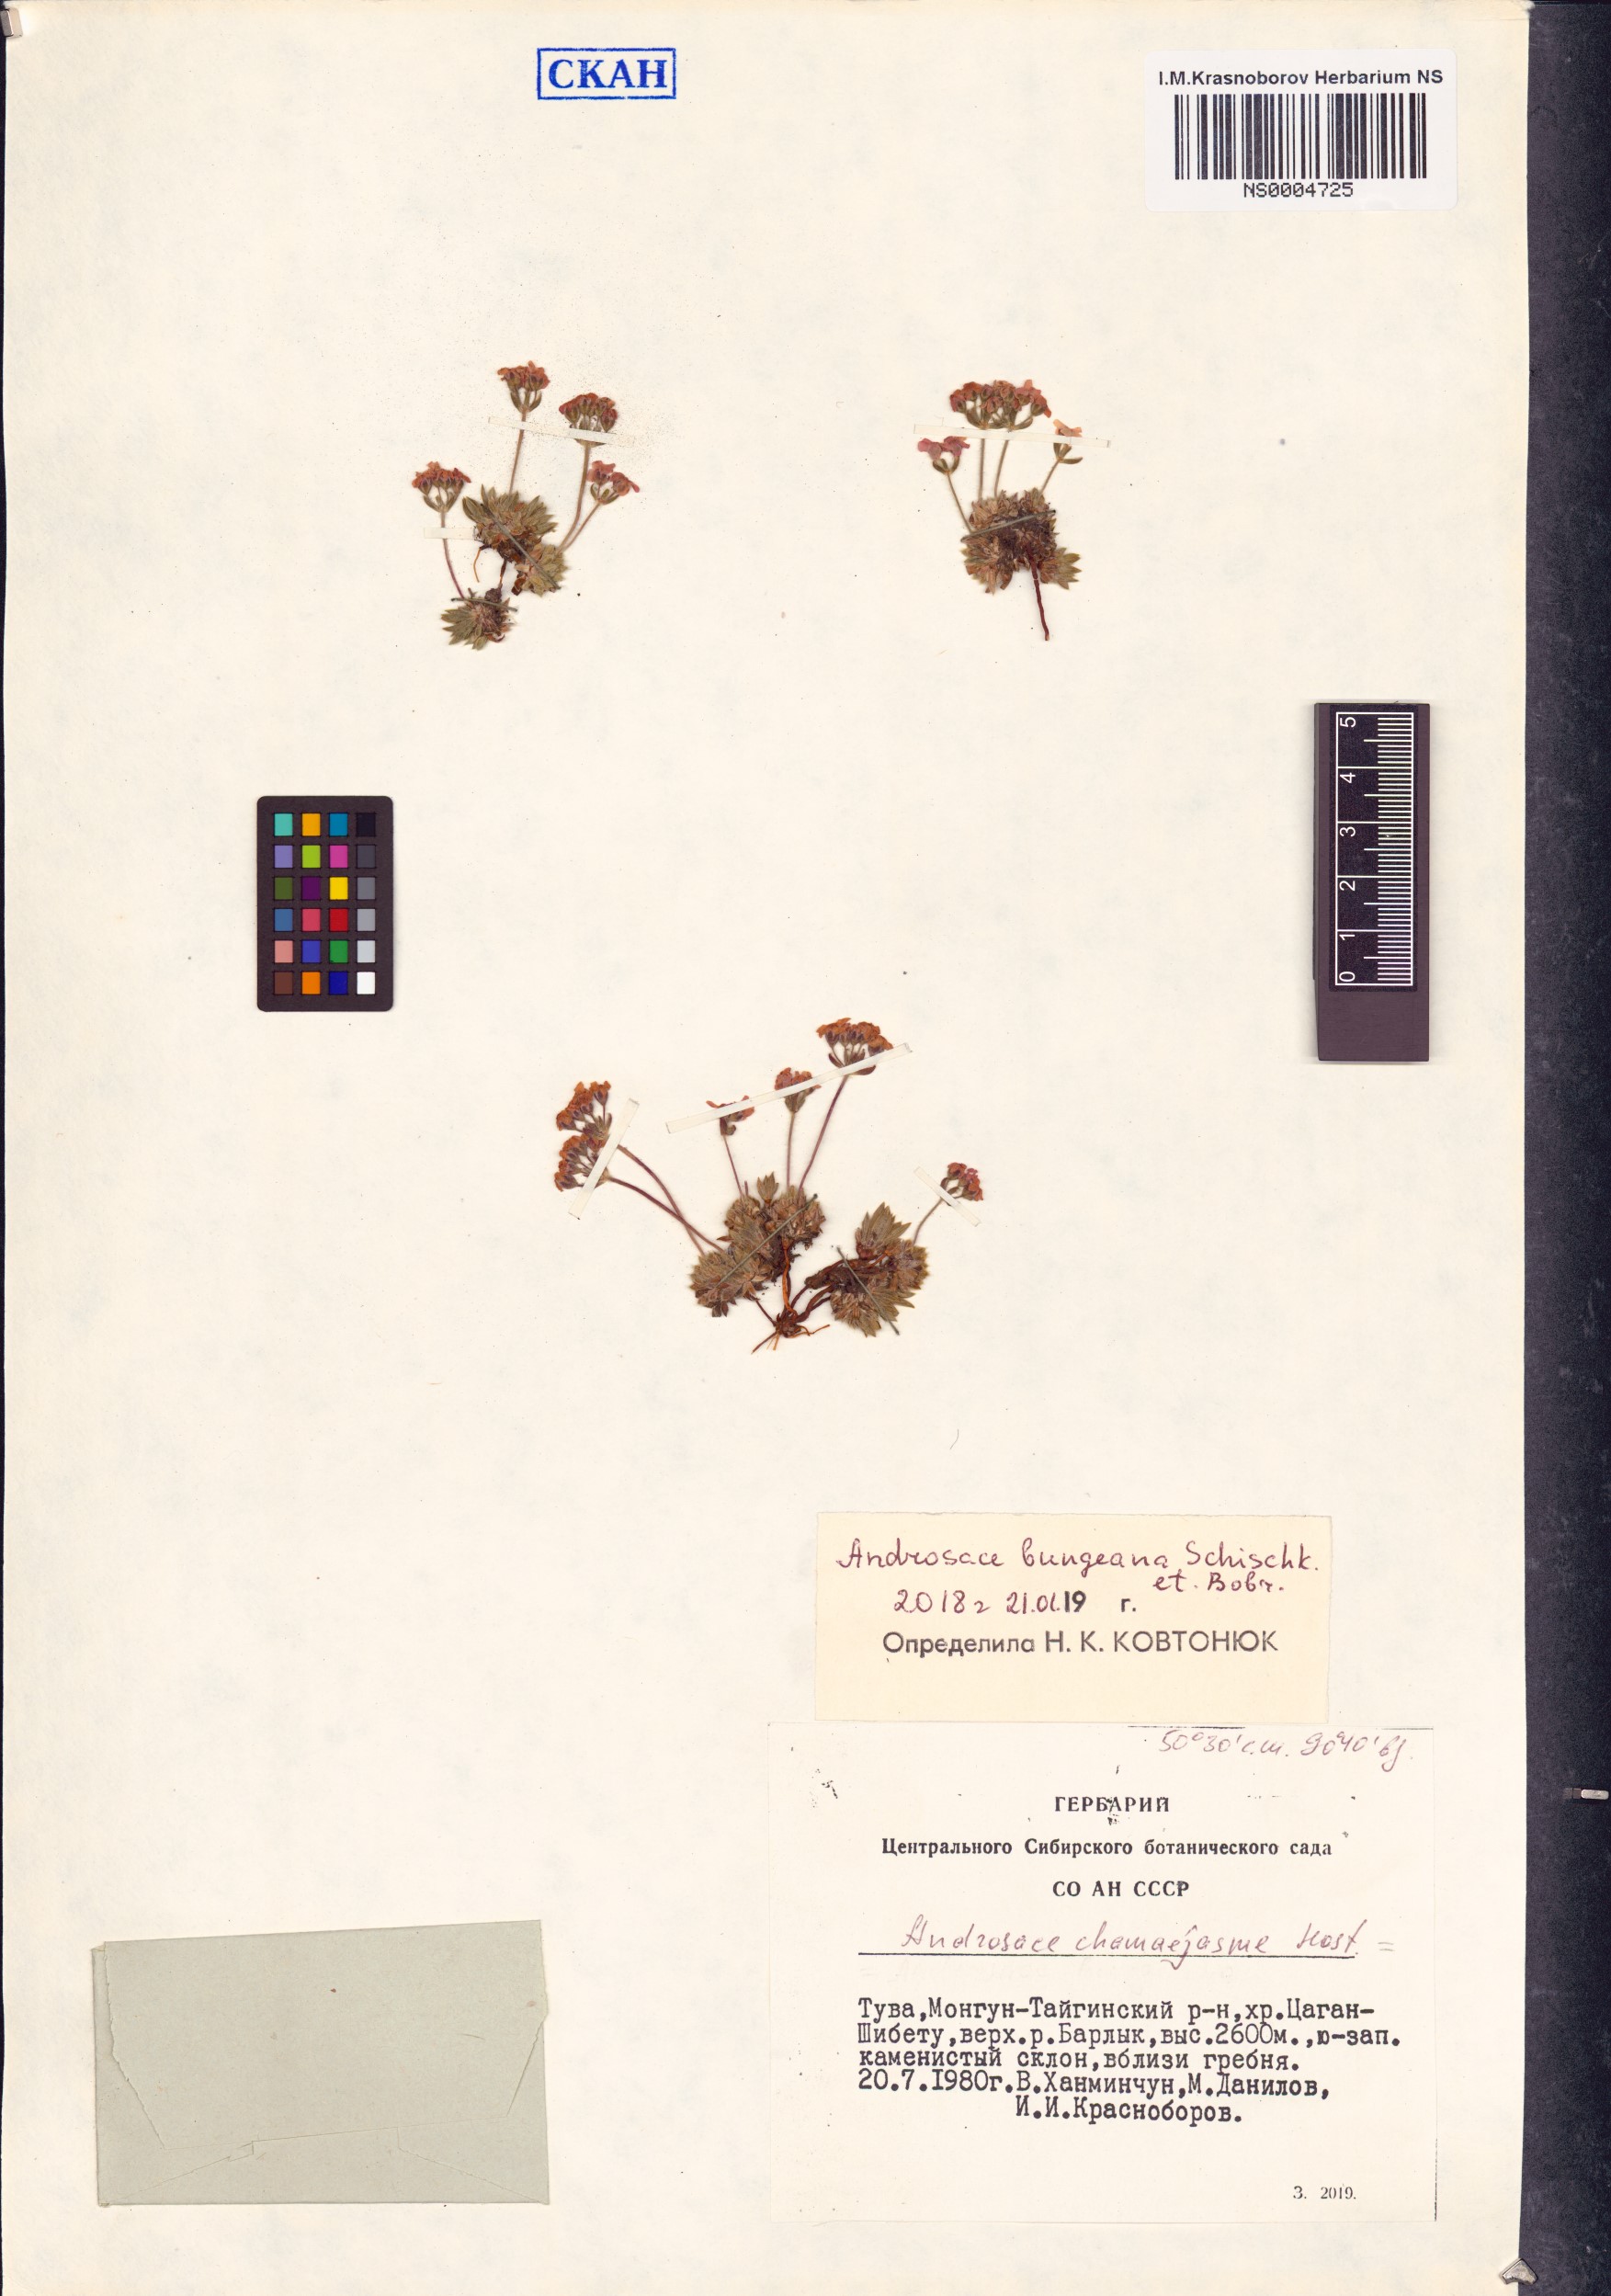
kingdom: Plantae
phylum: Tracheophyta
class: Magnoliopsida
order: Ericales
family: Primulaceae
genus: Androsace
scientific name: Androsace bungeana
